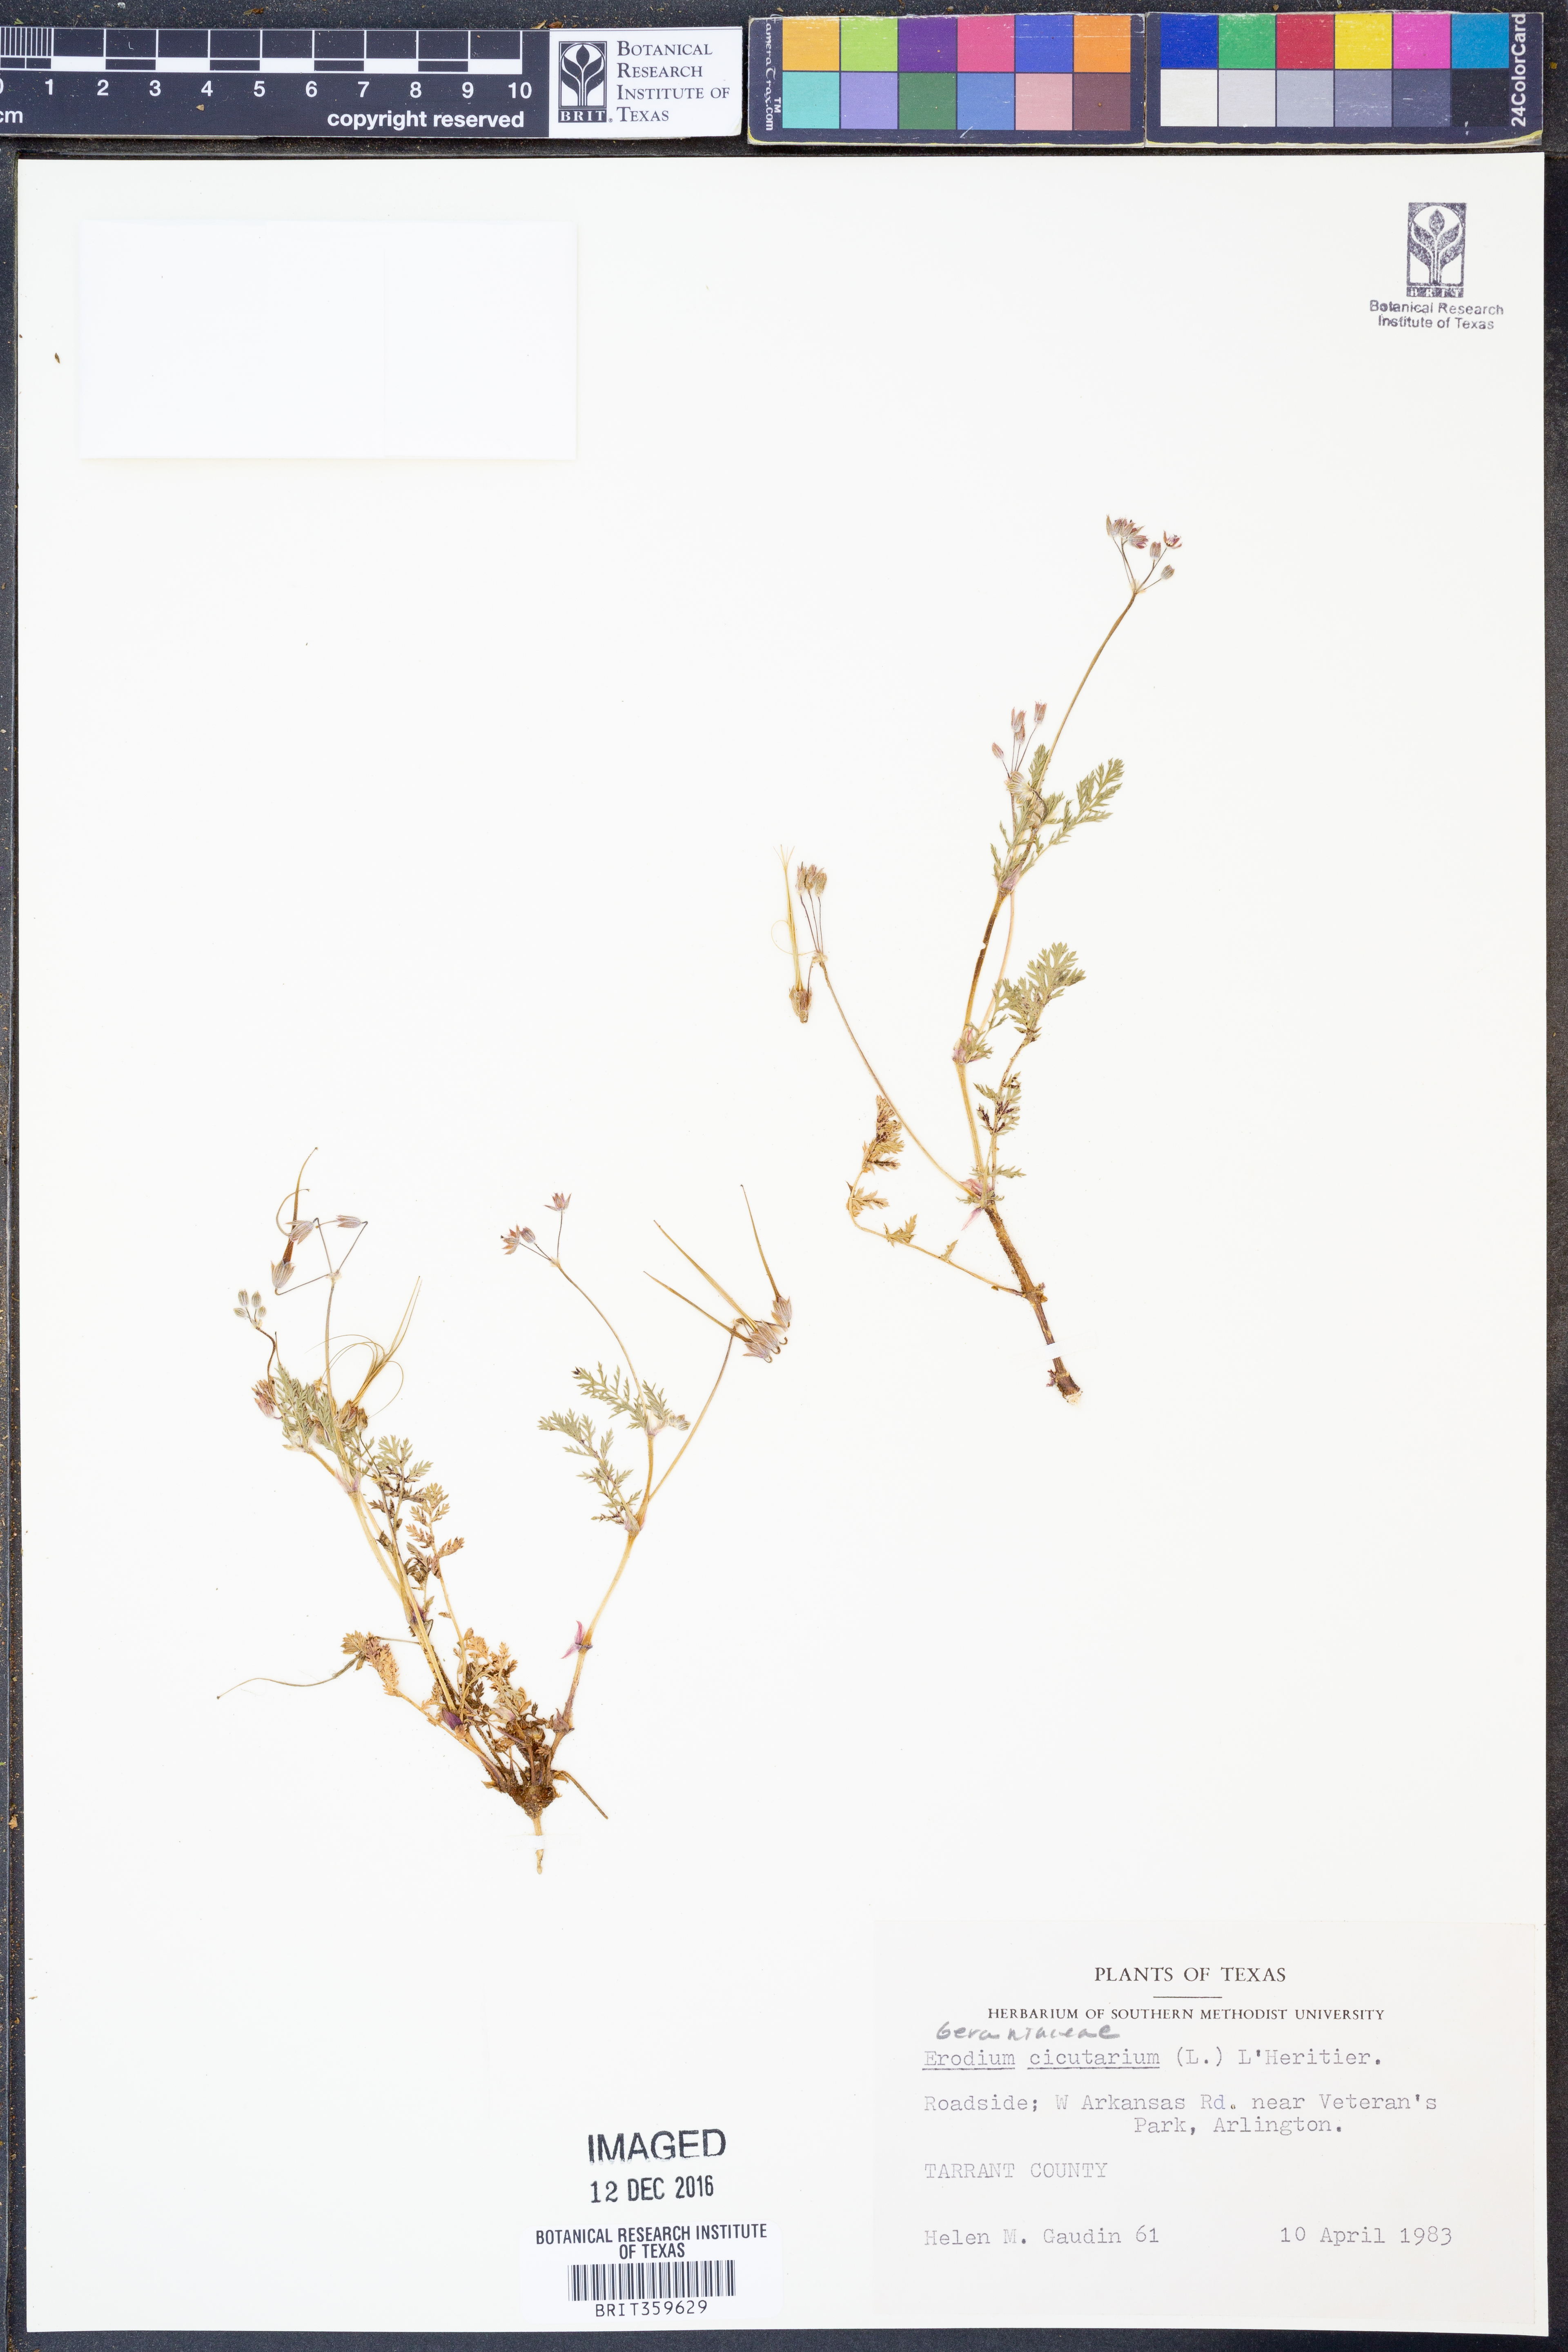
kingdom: Plantae
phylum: Tracheophyta
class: Magnoliopsida
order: Geraniales
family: Geraniaceae
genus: Erodium
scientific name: Erodium cicutarium
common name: Common stork's-bill
